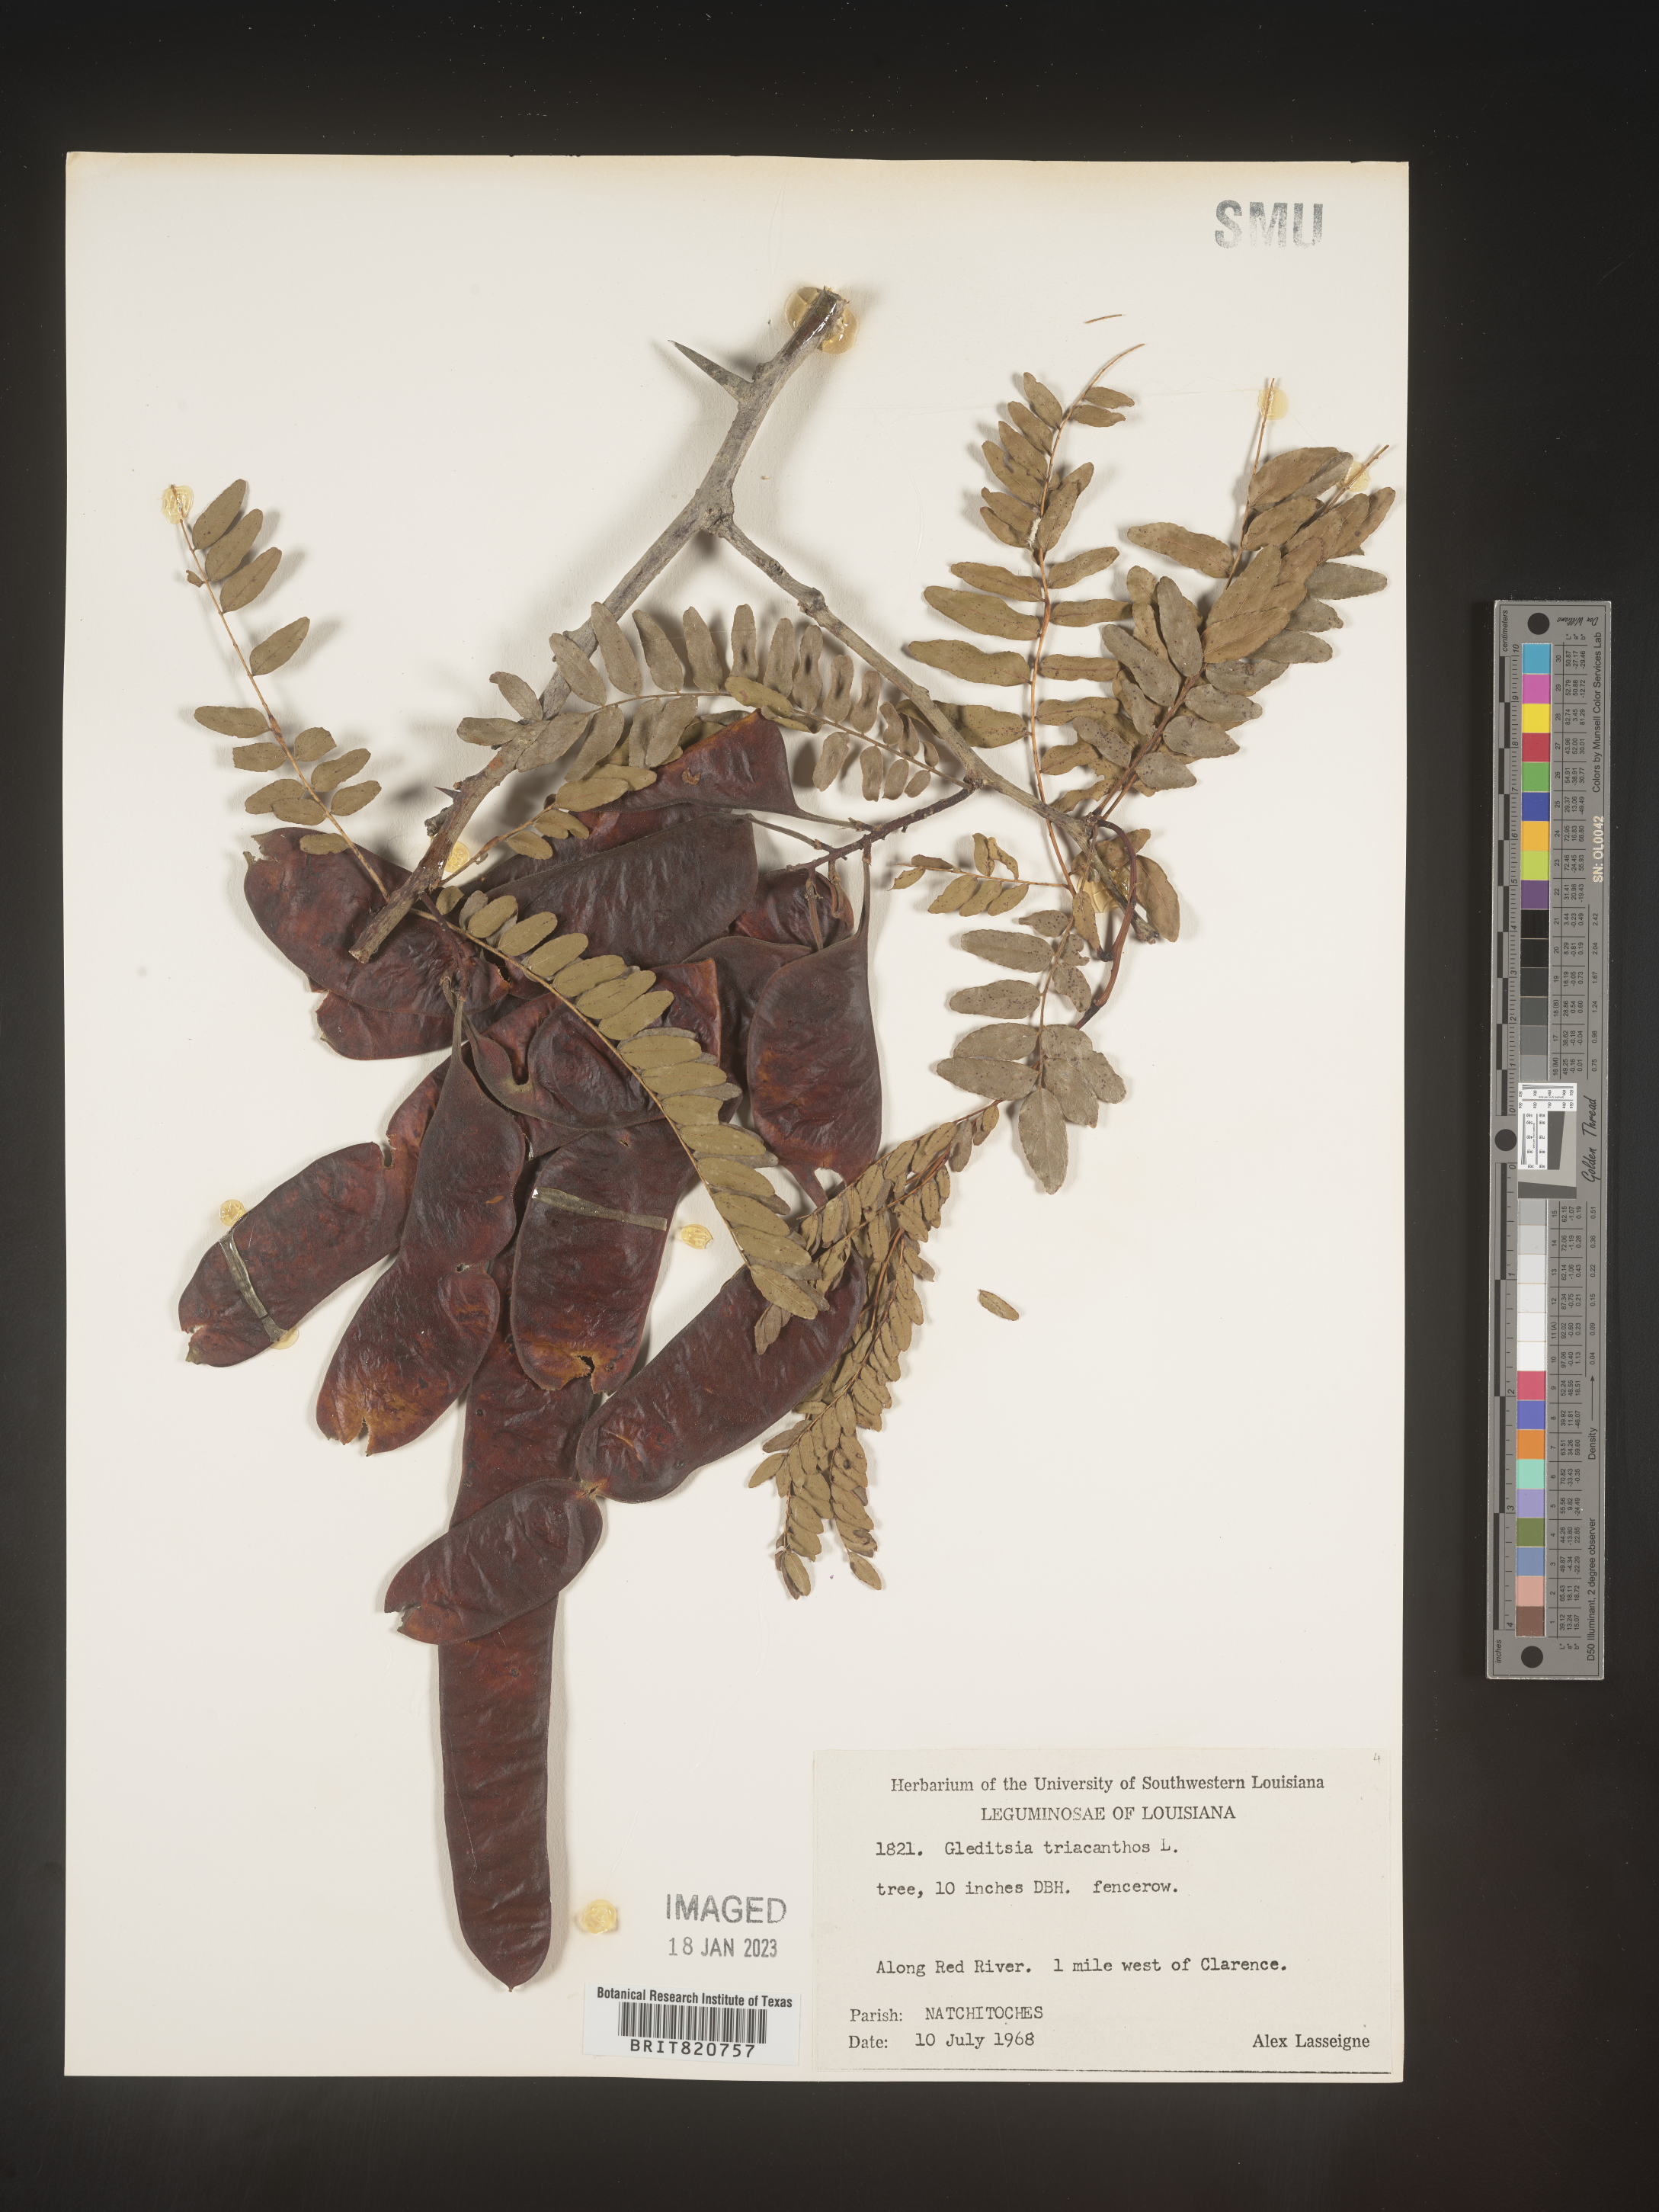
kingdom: Plantae
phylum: Tracheophyta
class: Magnoliopsida
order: Fabales
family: Fabaceae
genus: Gleditsia
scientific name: Gleditsia triacanthos
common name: Common honeylocust
